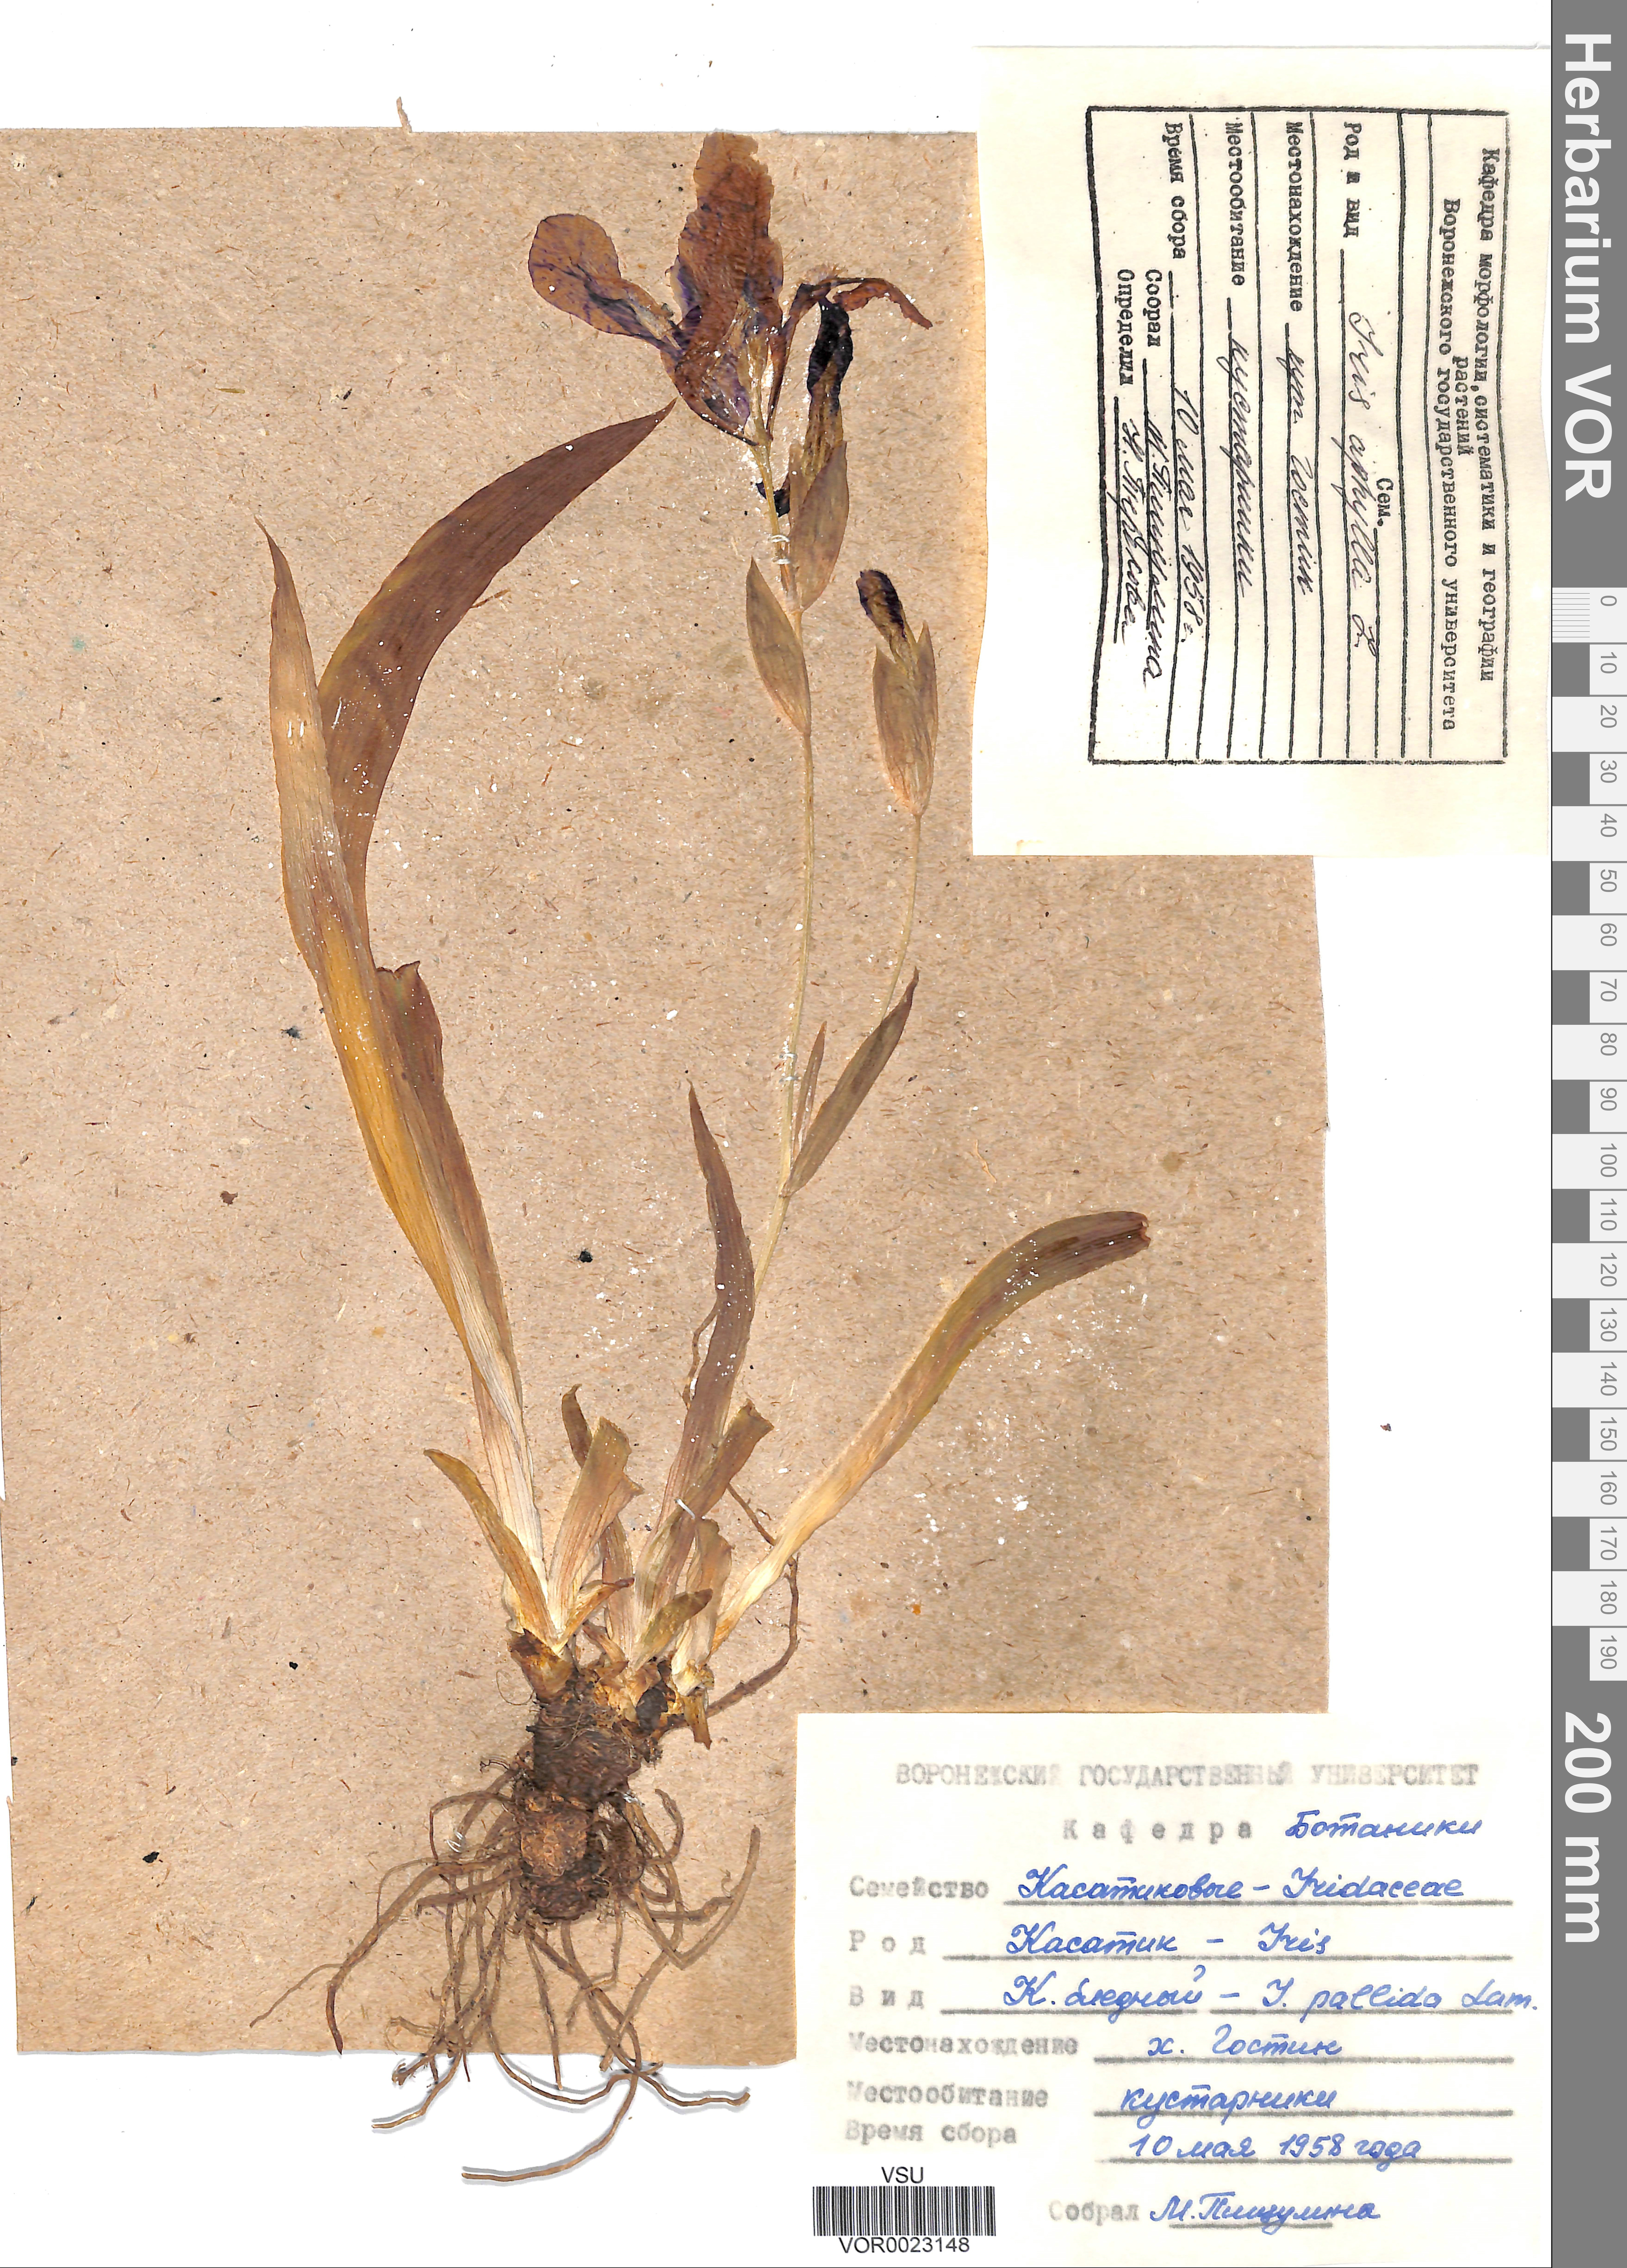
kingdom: Plantae
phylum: Tracheophyta
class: Liliopsida
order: Asparagales
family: Iridaceae
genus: Iris
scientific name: Iris aphylla
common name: Stool iris
